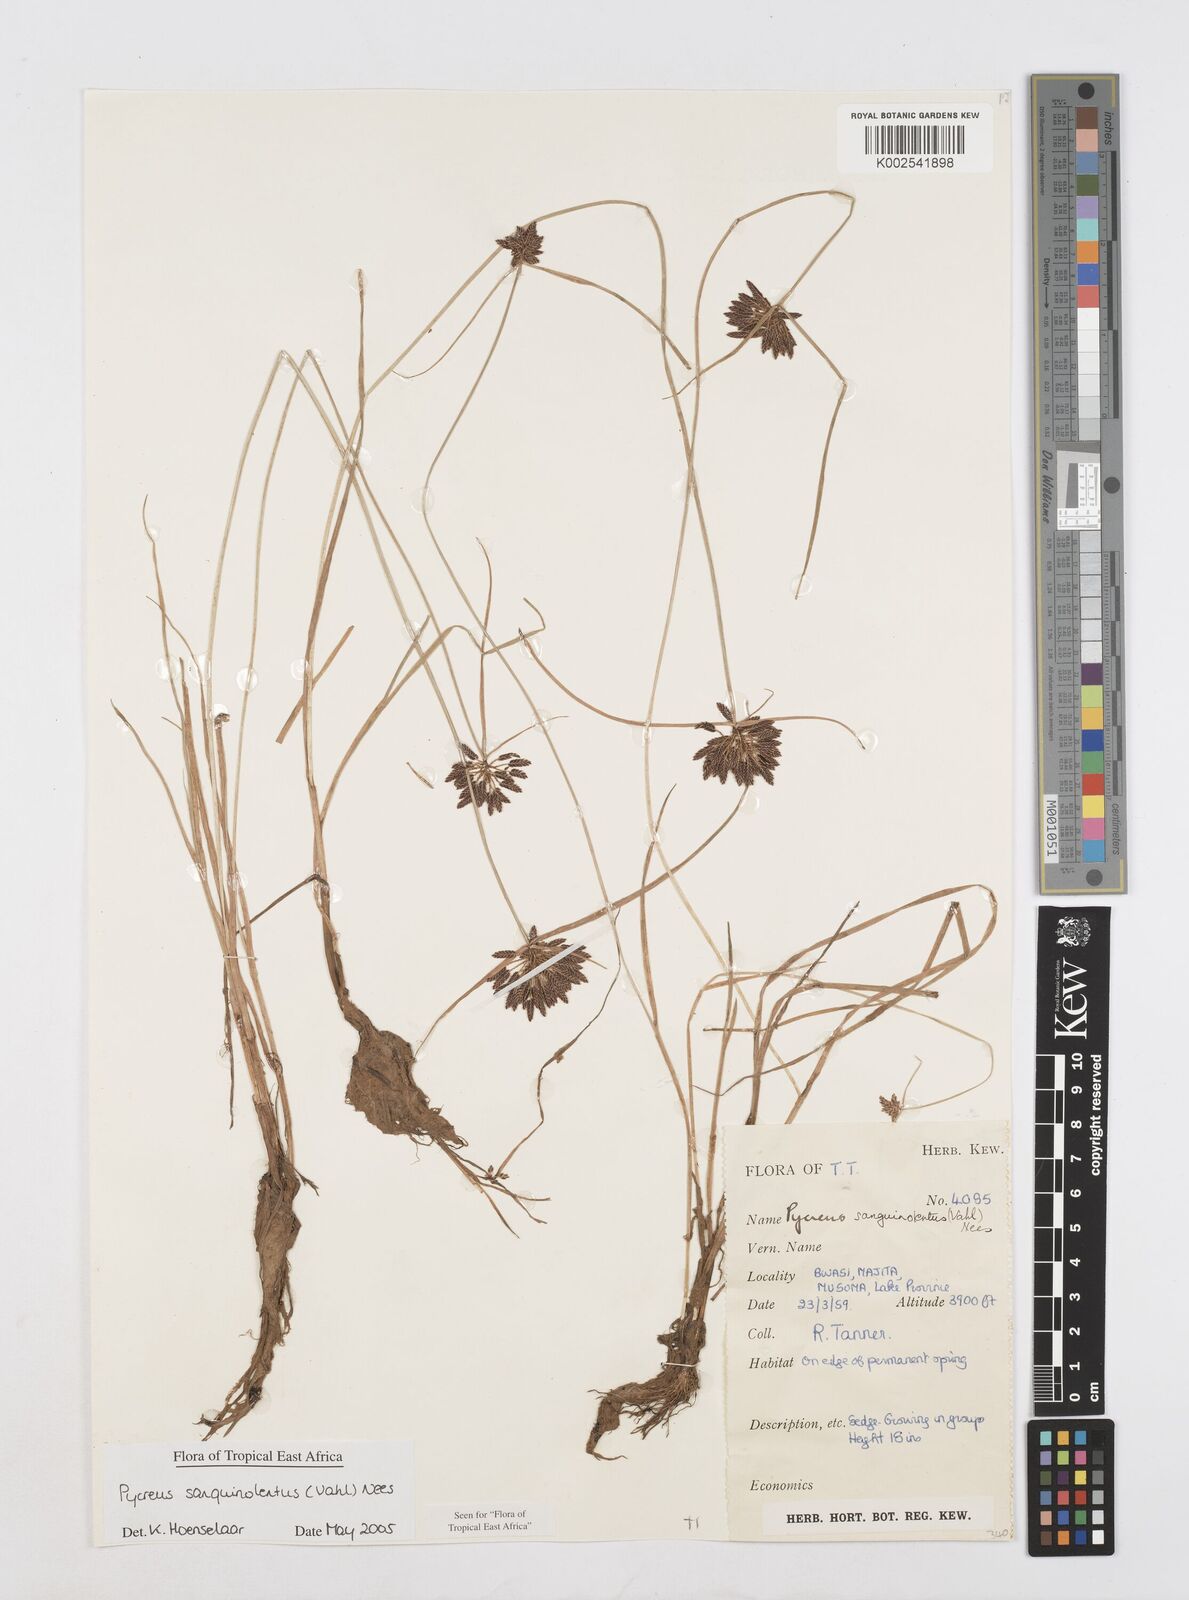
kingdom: Plantae
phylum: Tracheophyta
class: Liliopsida
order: Poales
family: Cyperaceae
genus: Cyperus
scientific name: Cyperus sanguinolentus
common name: Purpleglume flatsedge
